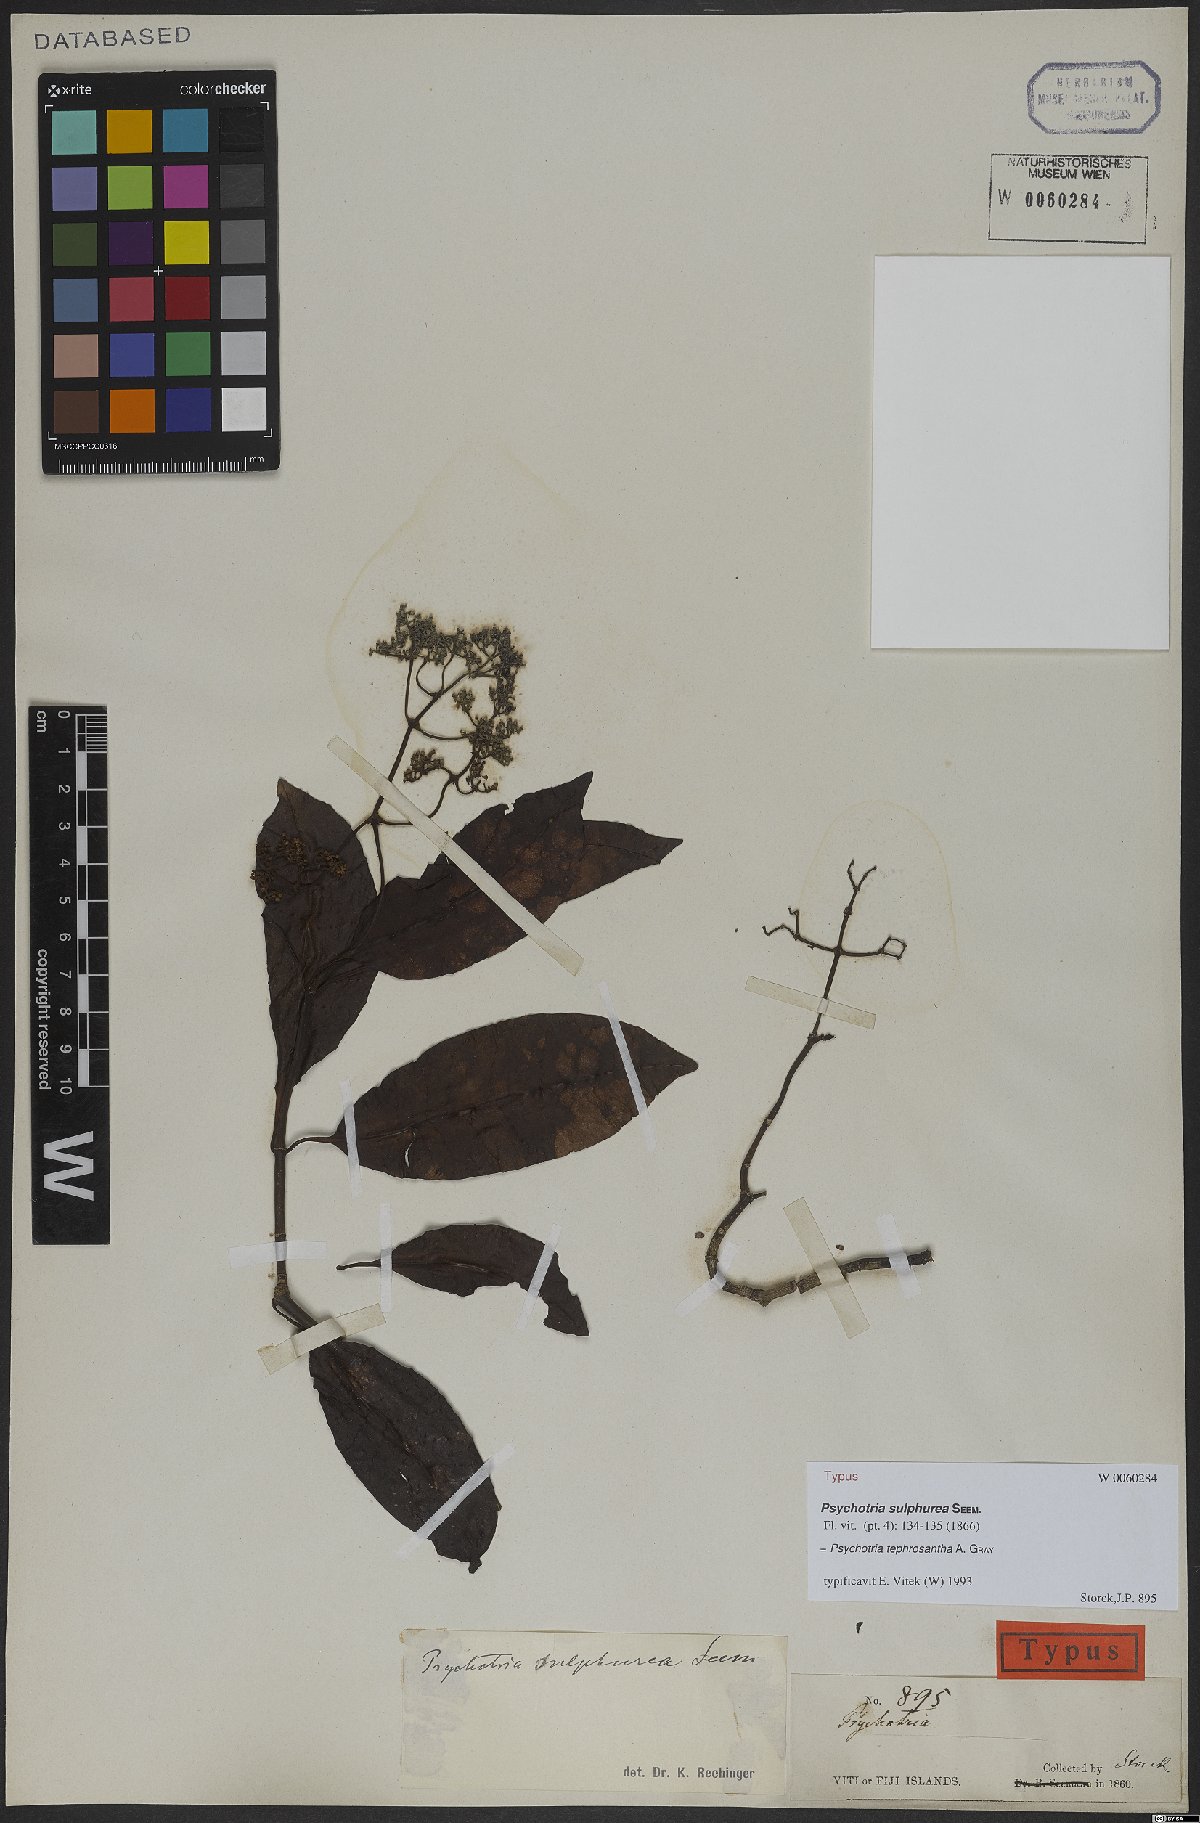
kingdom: Plantae
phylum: Tracheophyta
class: Magnoliopsida
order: Gentianales
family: Rubiaceae
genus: Psychotria
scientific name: Psychotria tephrosantha
